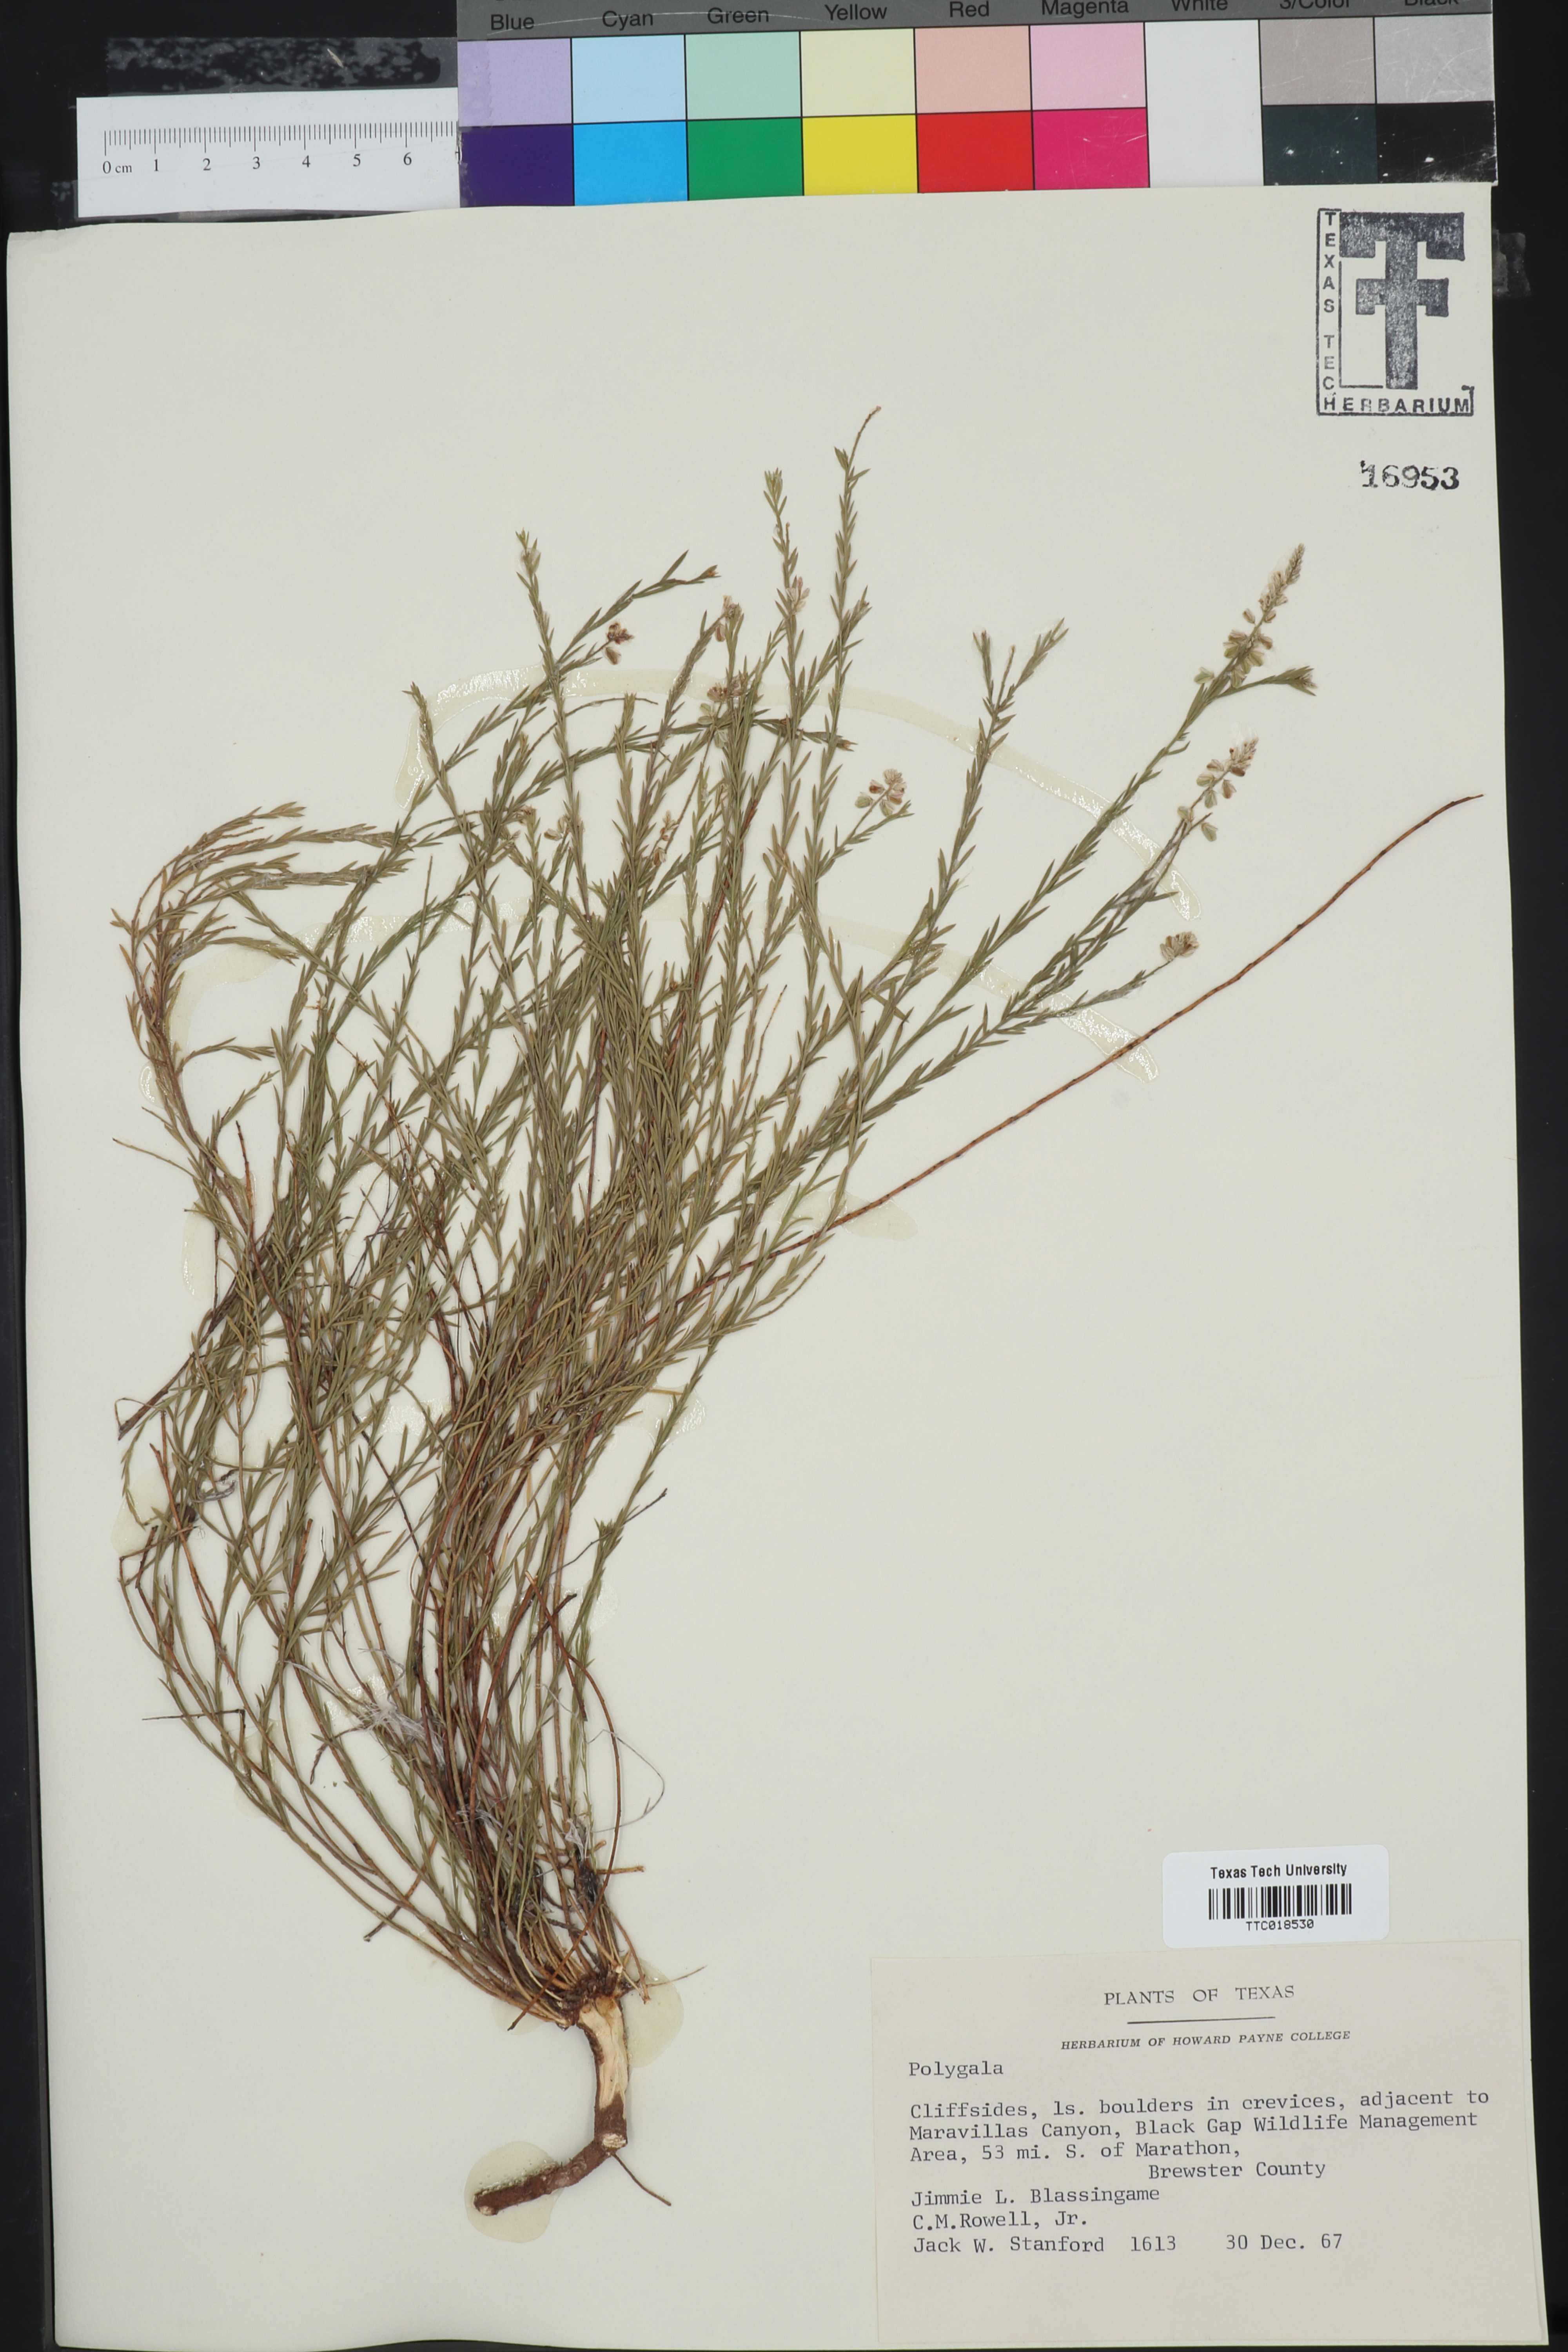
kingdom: Plantae
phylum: Tracheophyta
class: Magnoliopsida
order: Fabales
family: Polygalaceae
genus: Polygala
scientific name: Polygala
